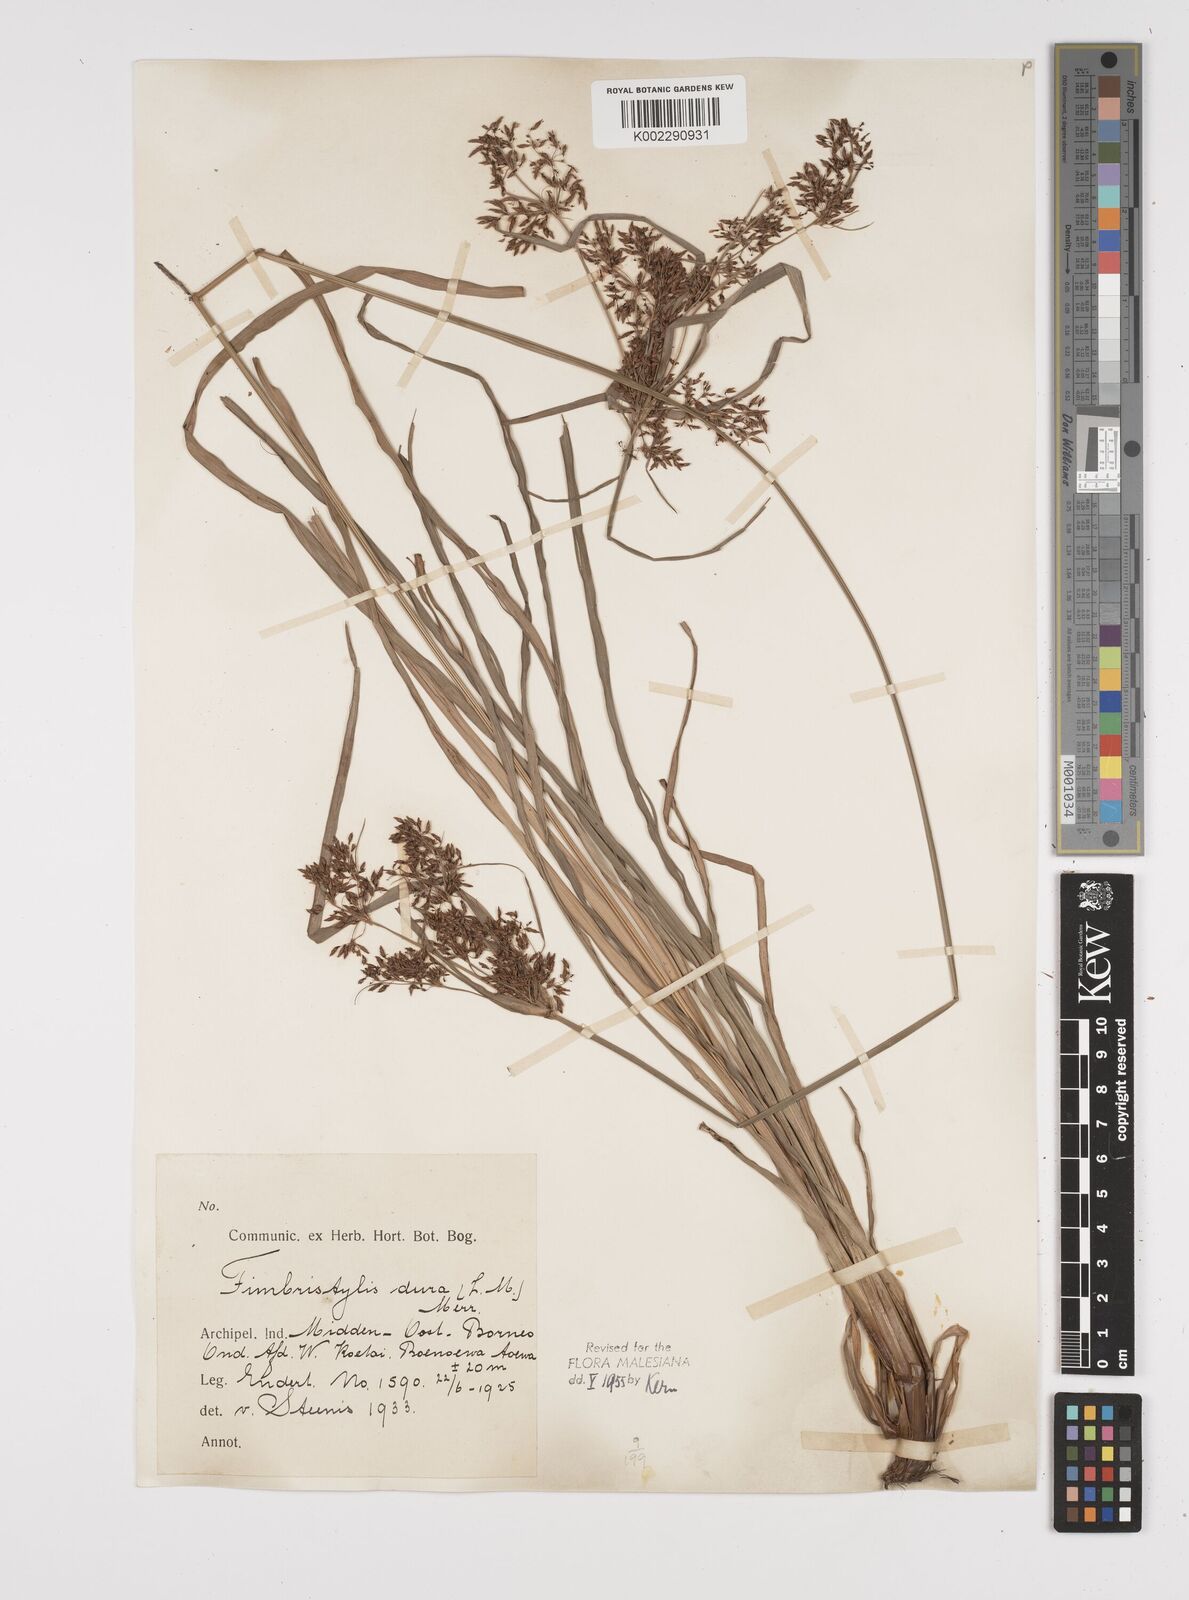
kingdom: Plantae
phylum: Tracheophyta
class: Liliopsida
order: Poales
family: Cyperaceae
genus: Fimbristylis
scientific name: Fimbristylis dura
